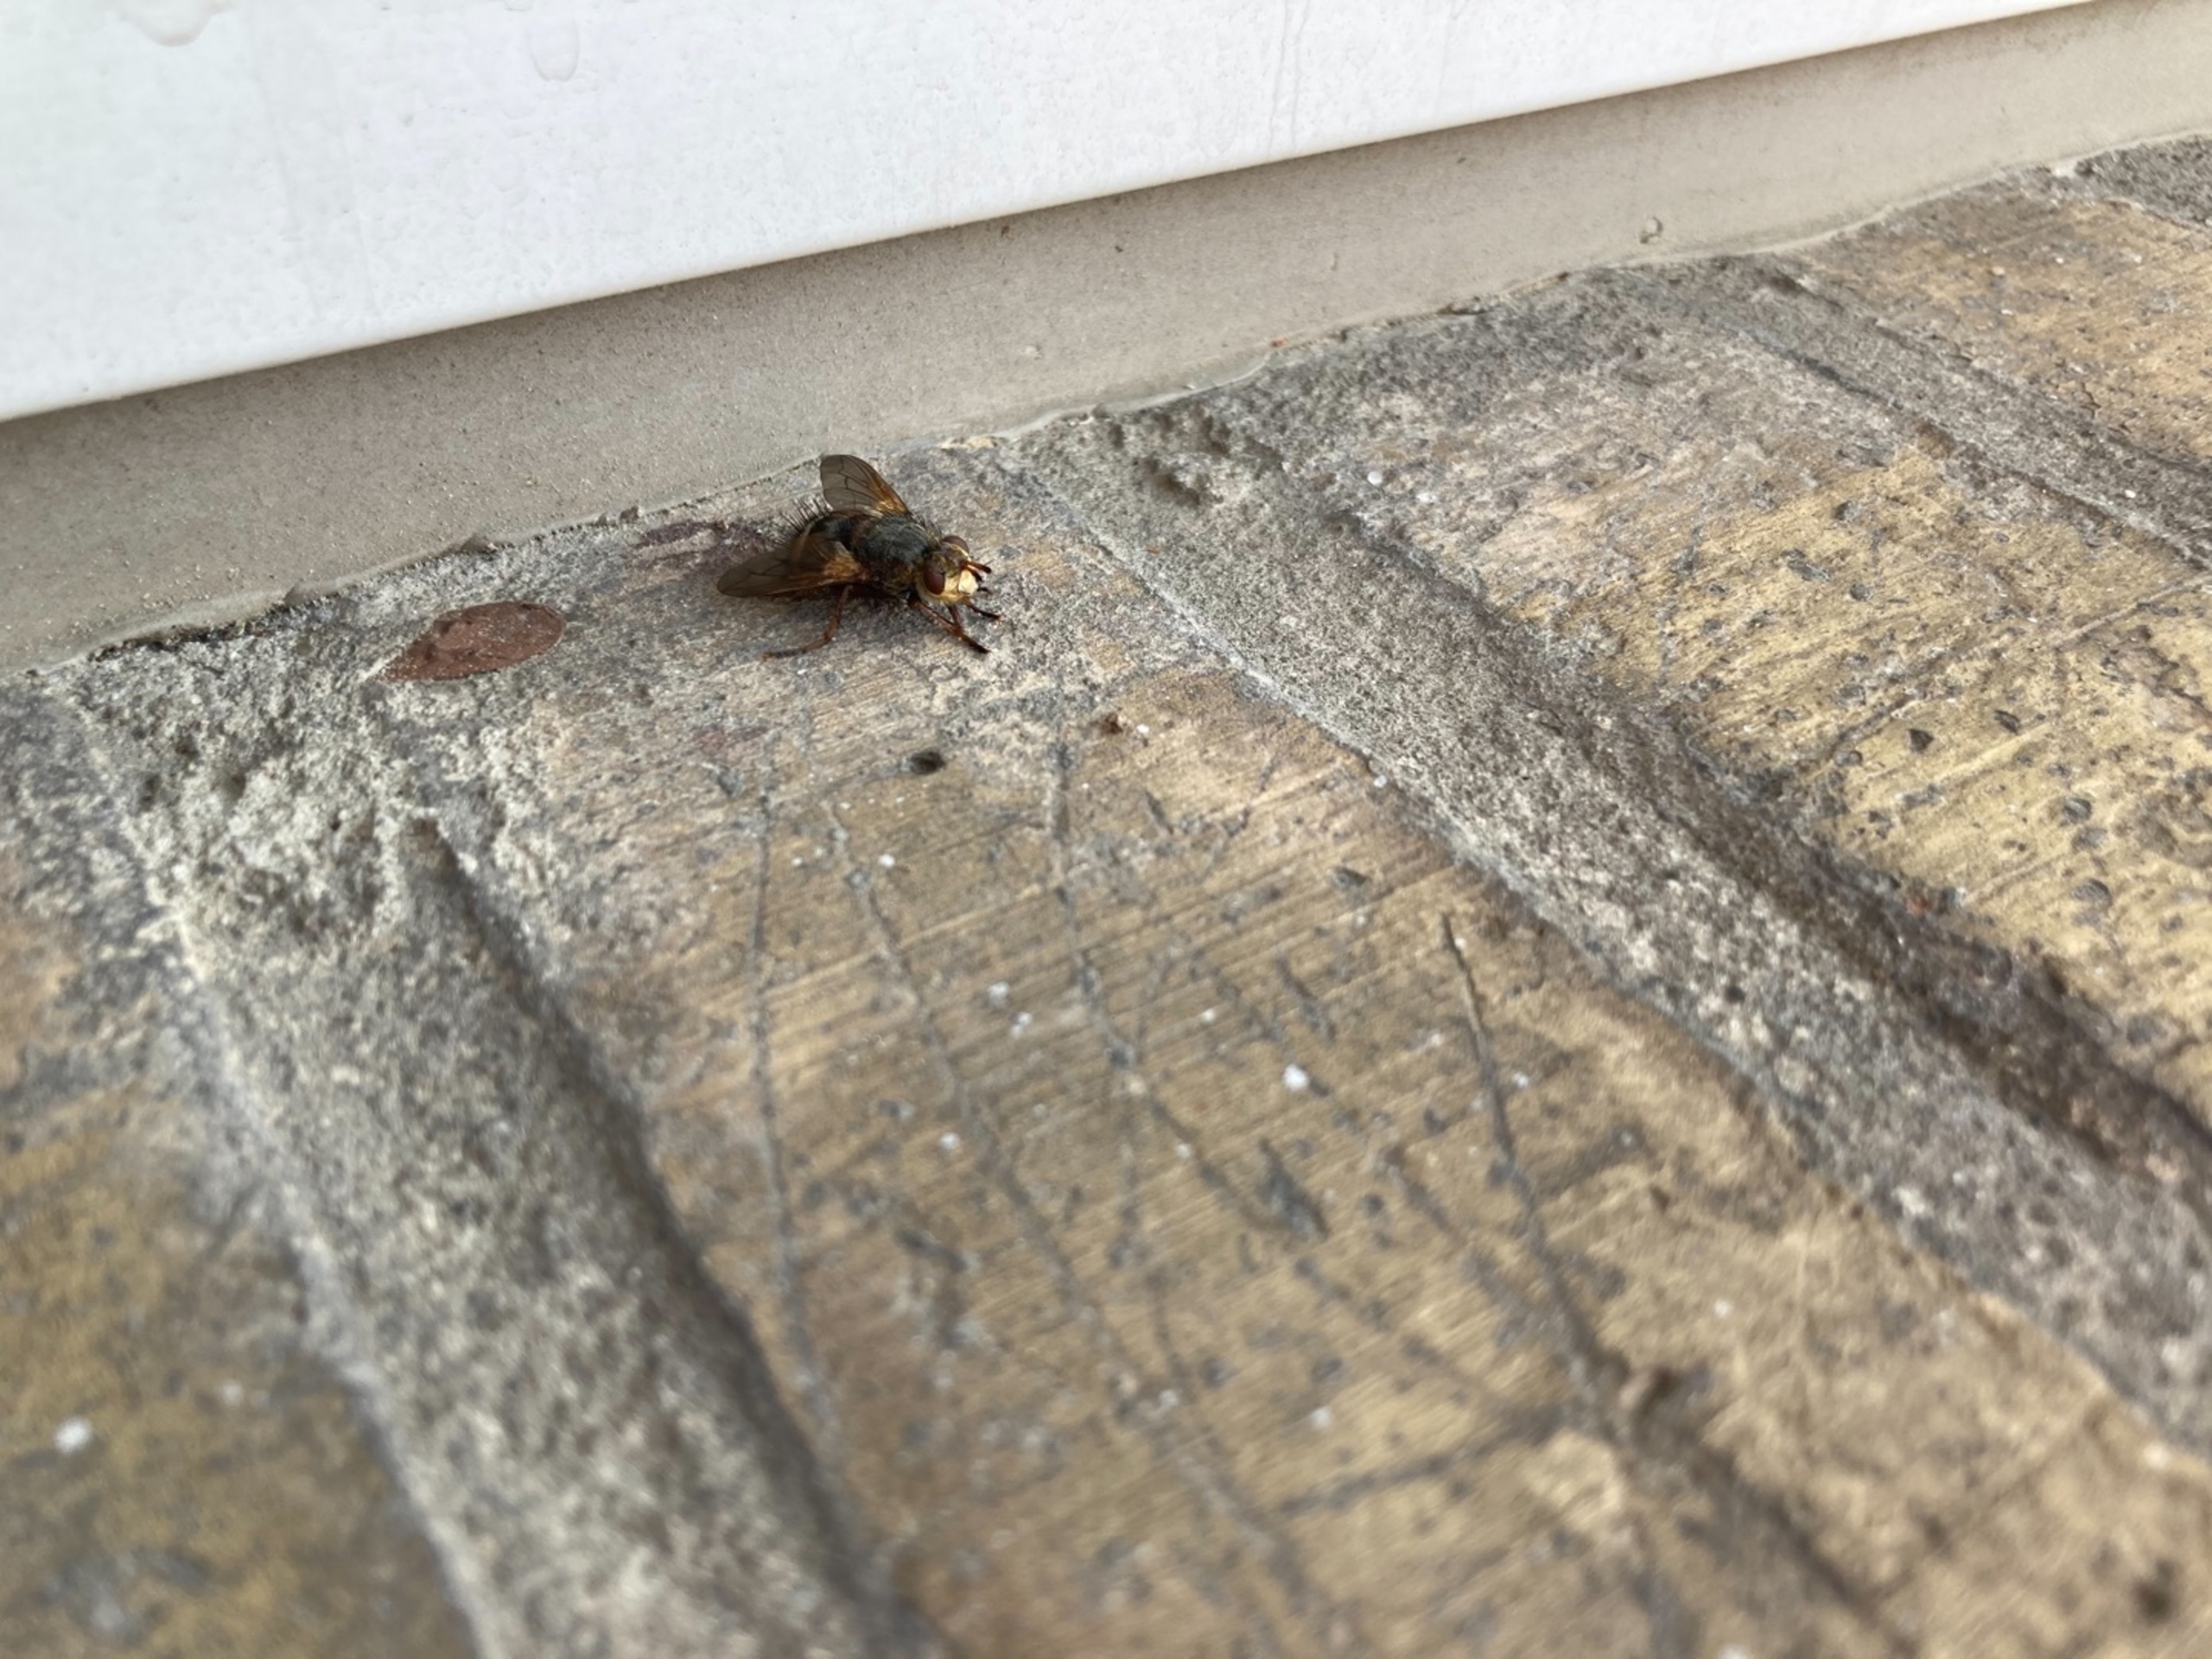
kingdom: Animalia
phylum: Arthropoda
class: Insecta
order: Diptera
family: Tachinidae
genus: Tachina
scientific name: Tachina fera
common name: Mellemfluen oskar
